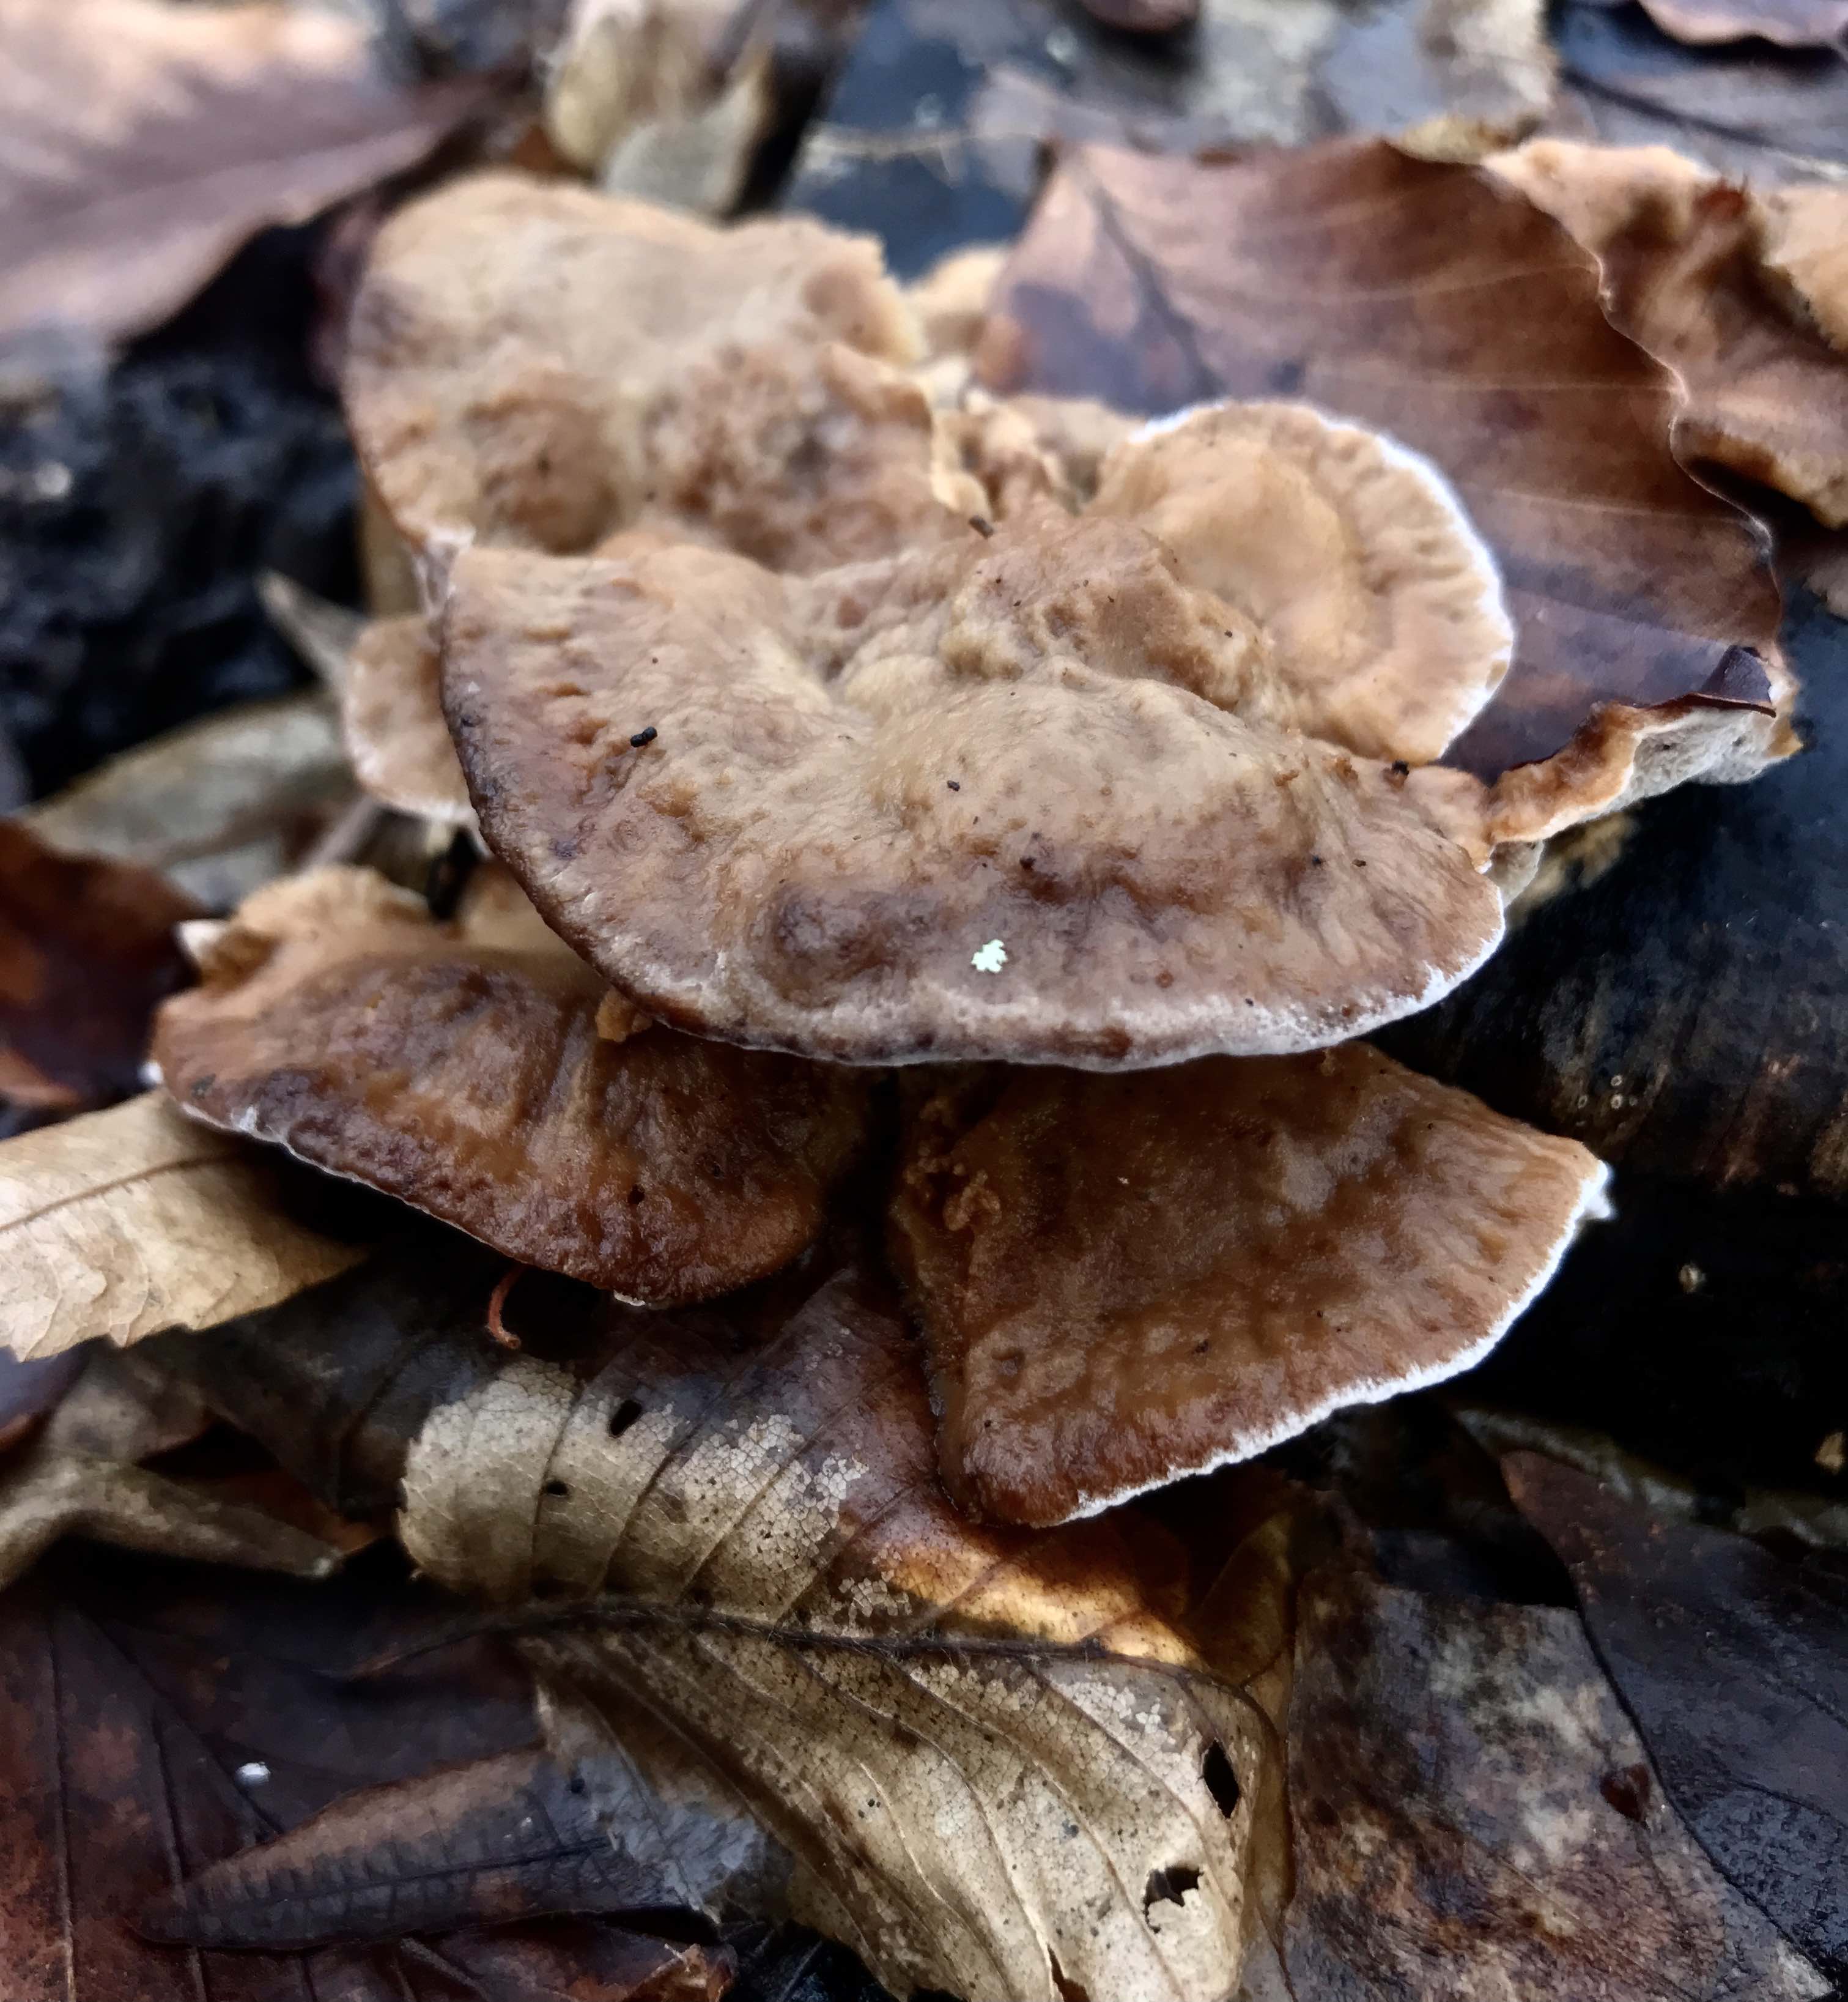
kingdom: Fungi
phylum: Basidiomycota
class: Agaricomycetes
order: Polyporales
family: Phanerochaetaceae
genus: Bjerkandera
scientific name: Bjerkandera fumosa
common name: grågul sodporesvamp
